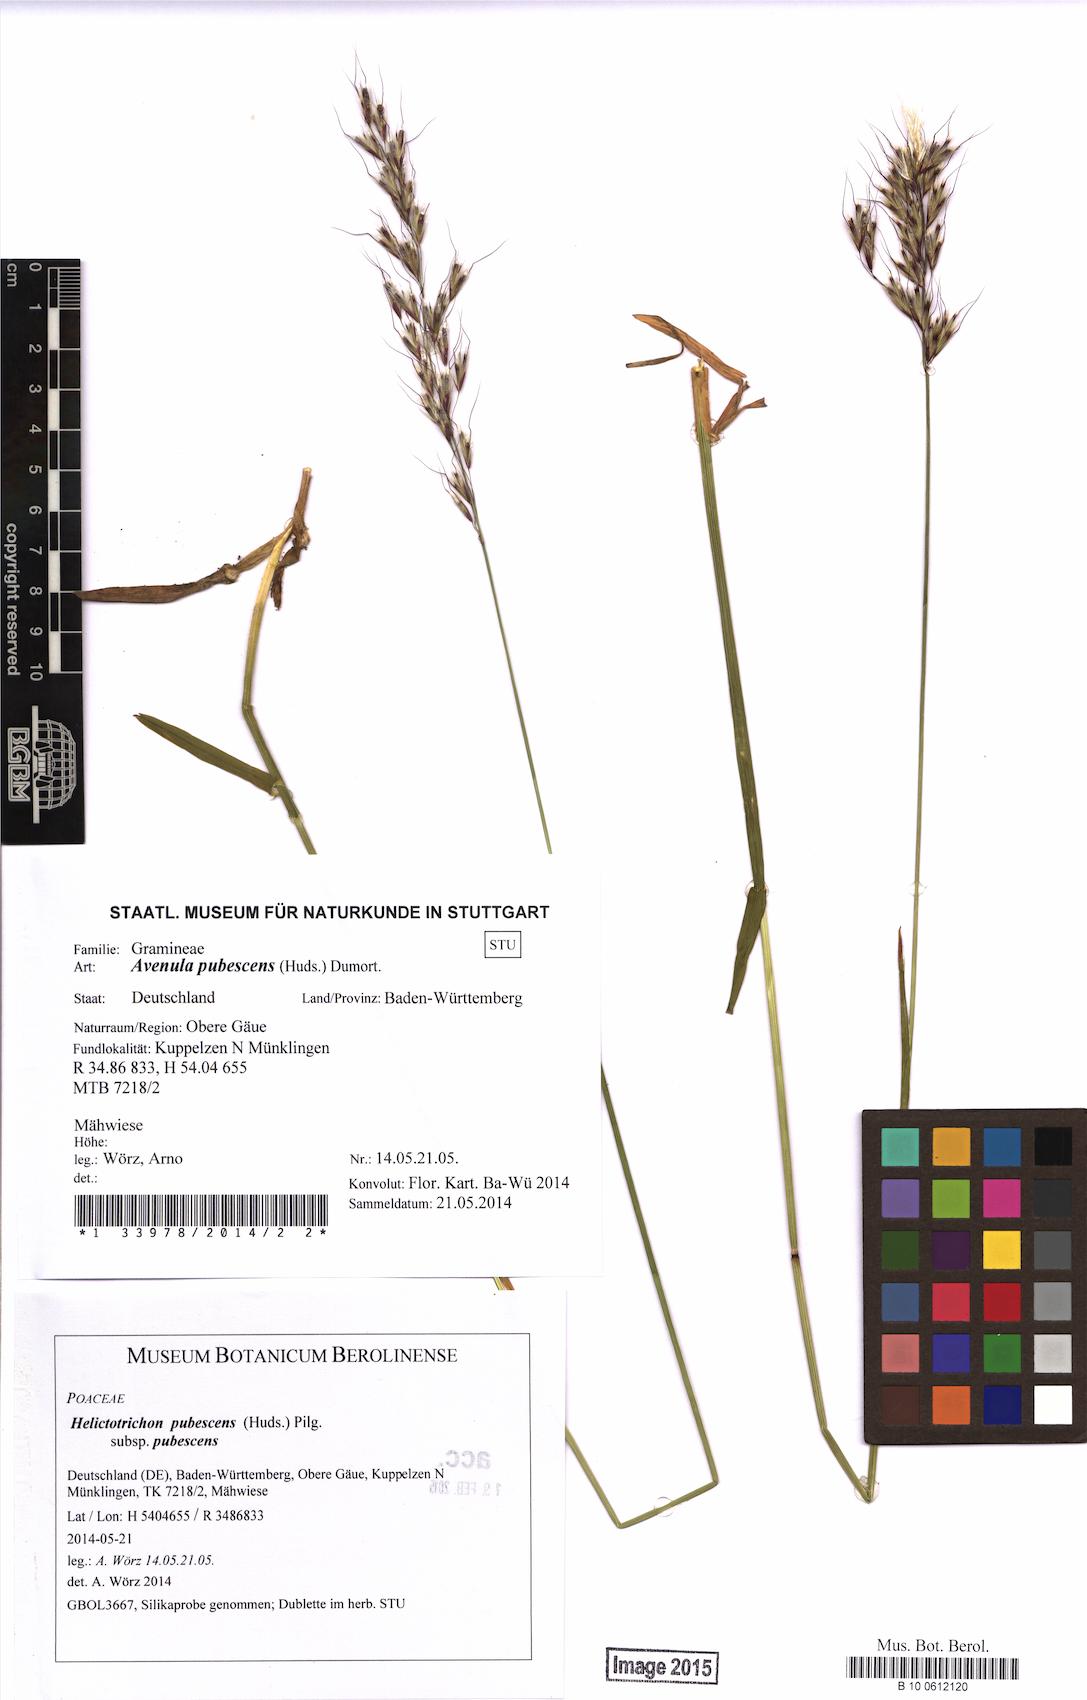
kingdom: Plantae
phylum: Tracheophyta
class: Liliopsida
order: Poales
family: Poaceae
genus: Avenula
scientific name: Avenula pubescens
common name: Downy alpine oatgrass
